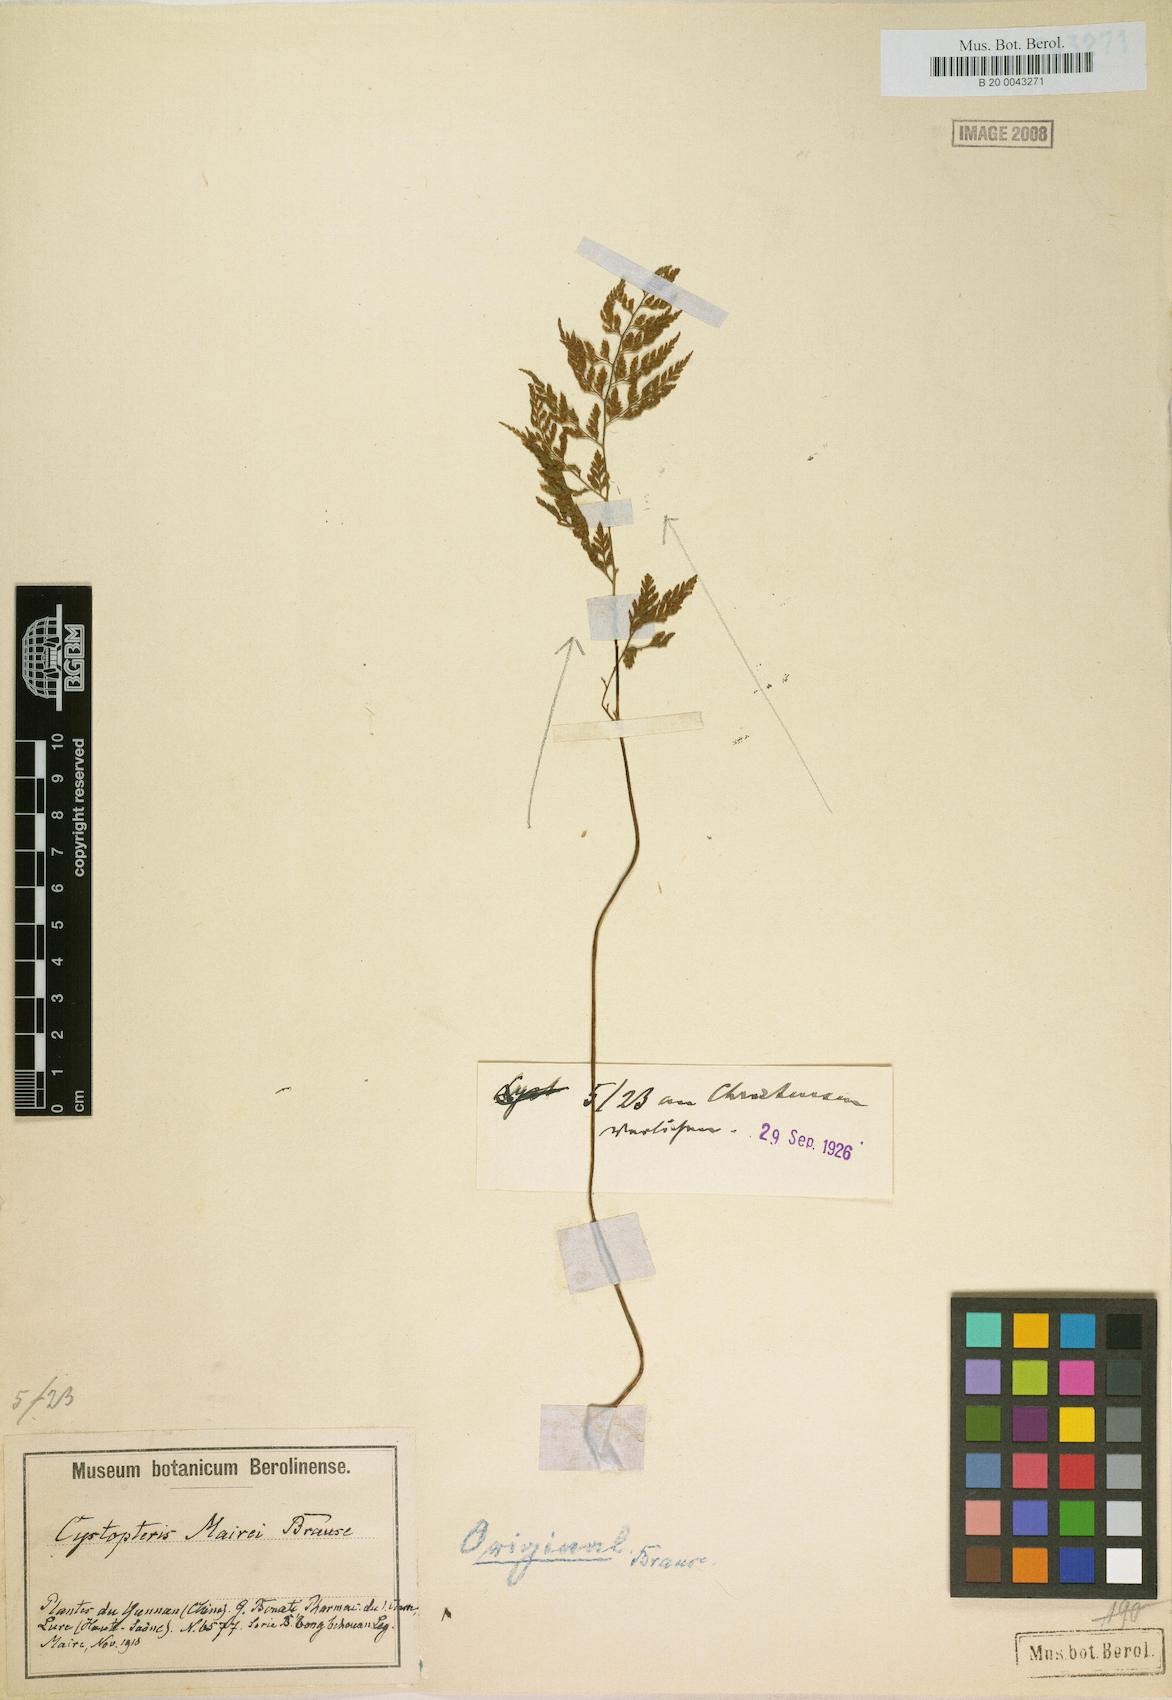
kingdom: Plantae
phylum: Tracheophyta
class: Polypodiopsida
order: Polypodiales
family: Cystopteridaceae
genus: Cystopteris
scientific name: Cystopteris moupinensis
